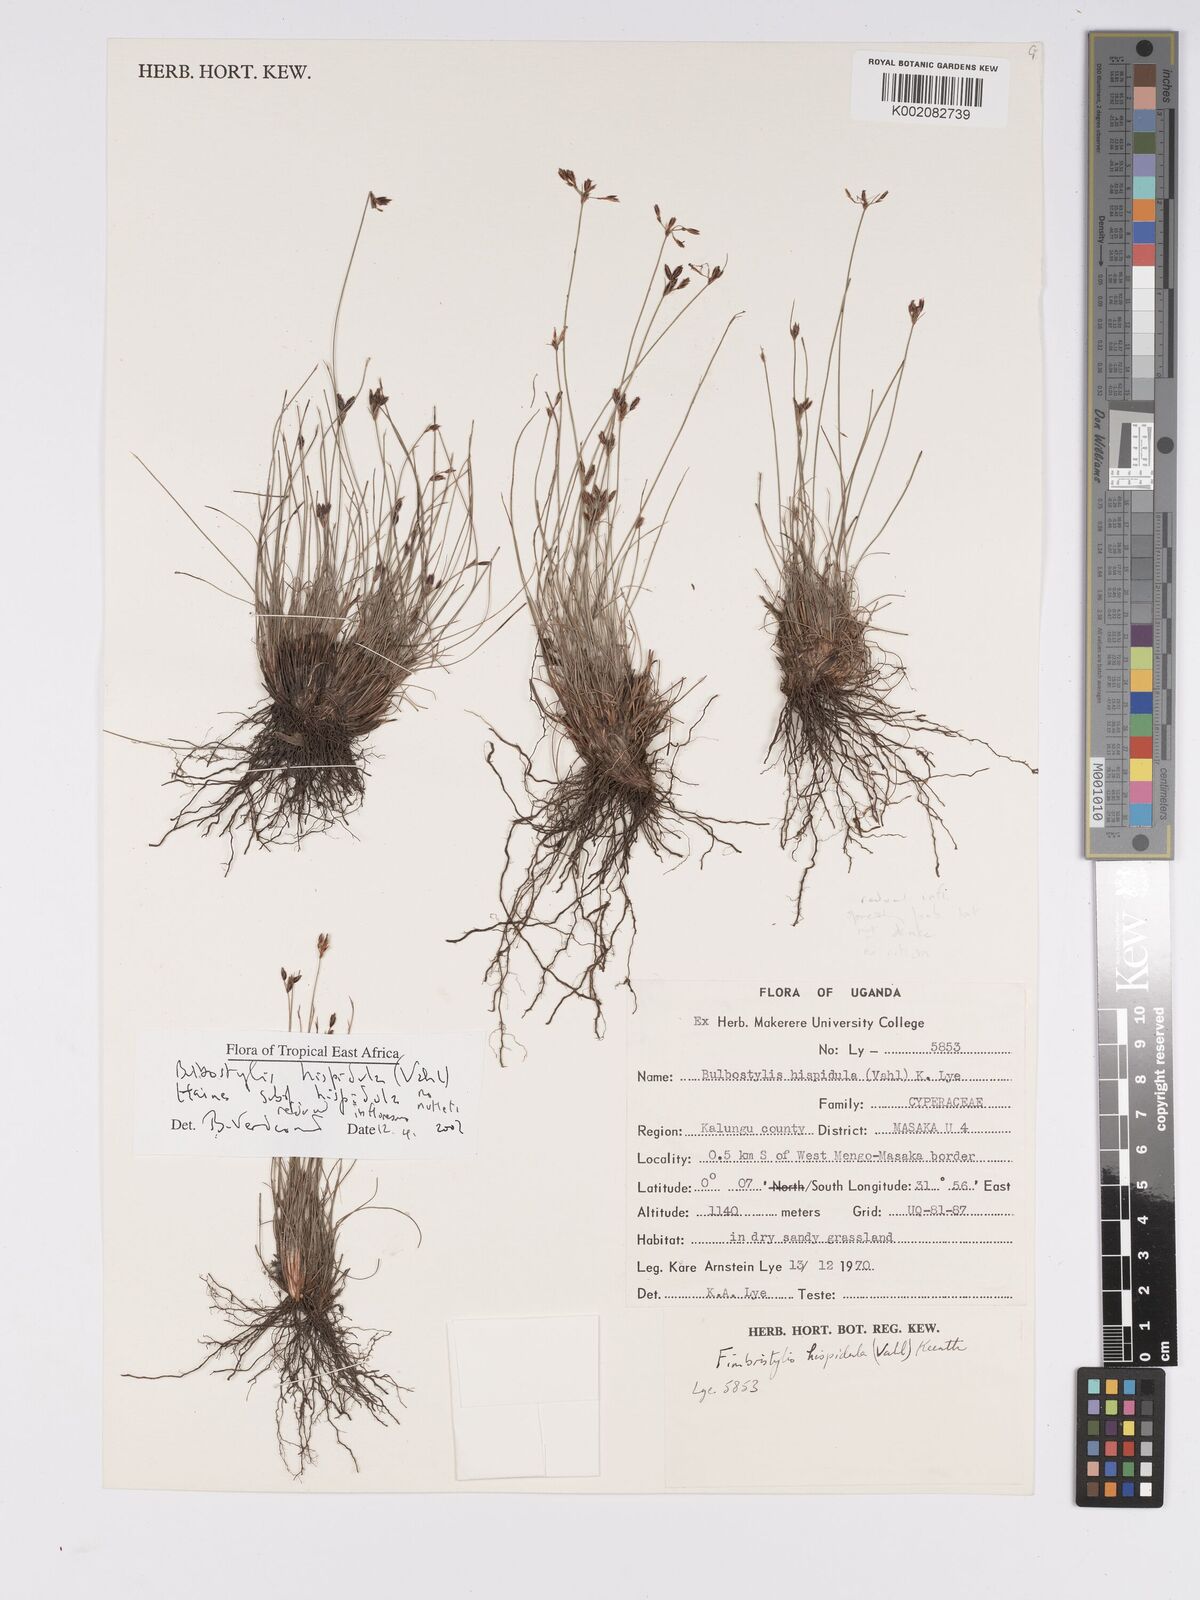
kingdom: Plantae
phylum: Tracheophyta
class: Liliopsida
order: Poales
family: Cyperaceae
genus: Bulbostylis
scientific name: Bulbostylis hispidula
